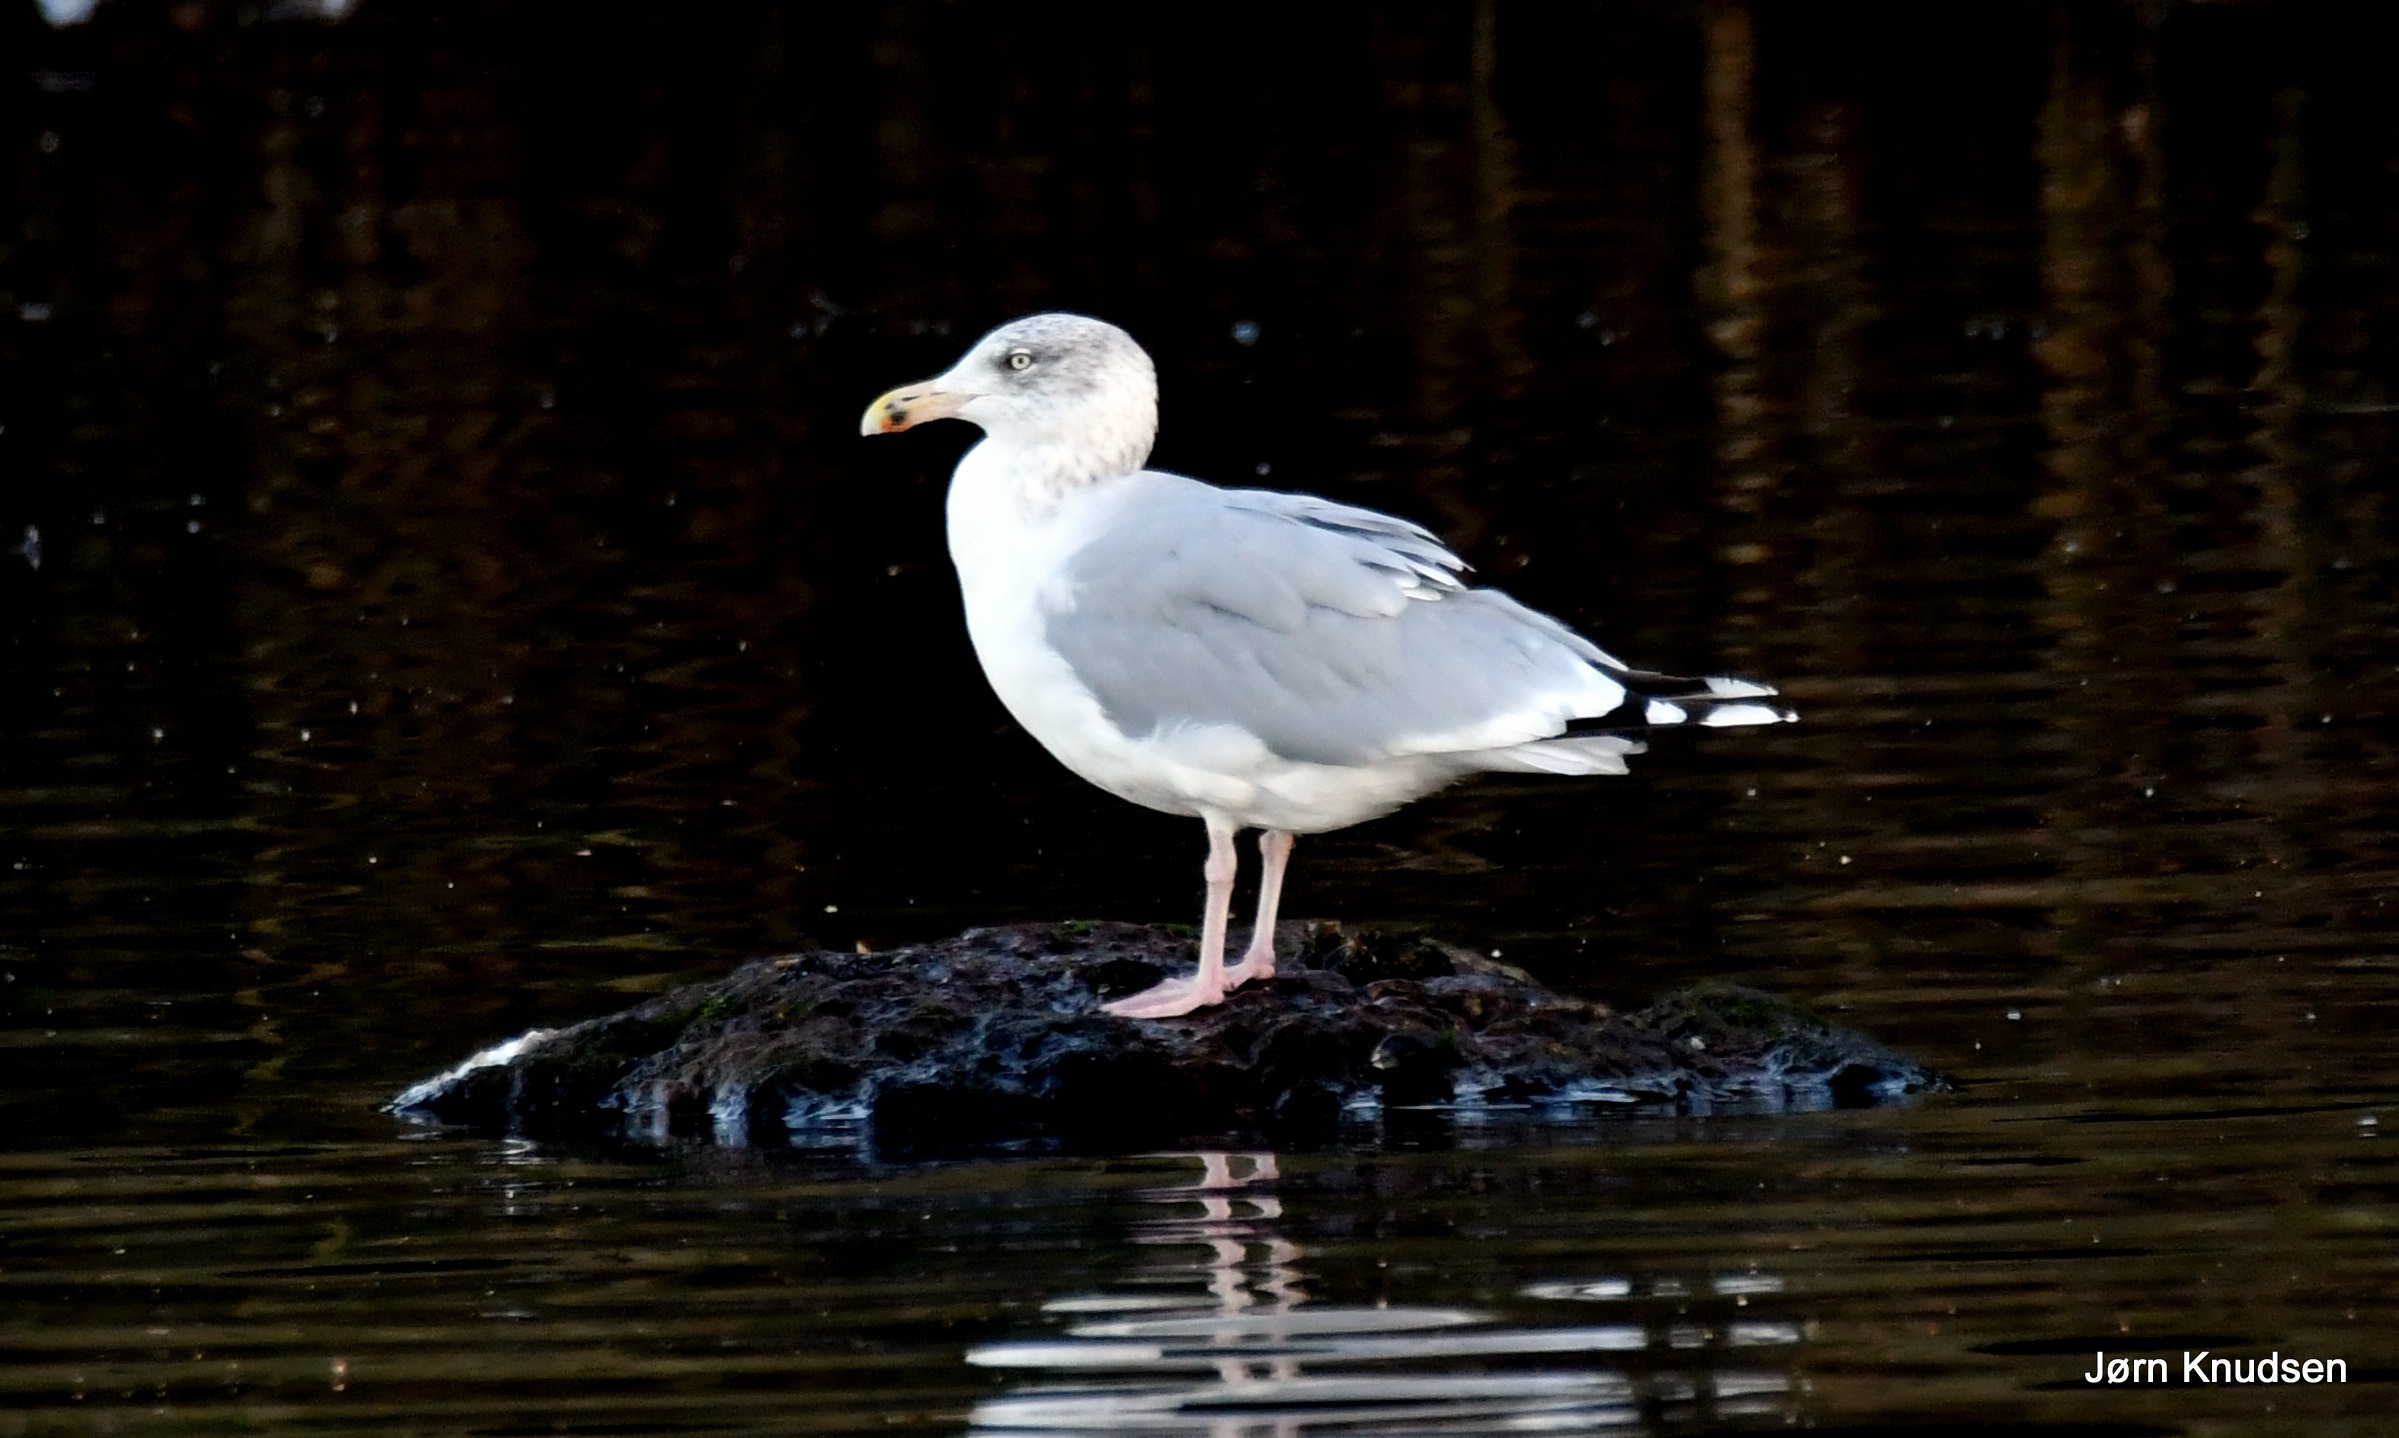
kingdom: Animalia
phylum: Chordata
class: Aves
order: Charadriiformes
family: Laridae
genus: Larus
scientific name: Larus argentatus
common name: Sølvmåge
